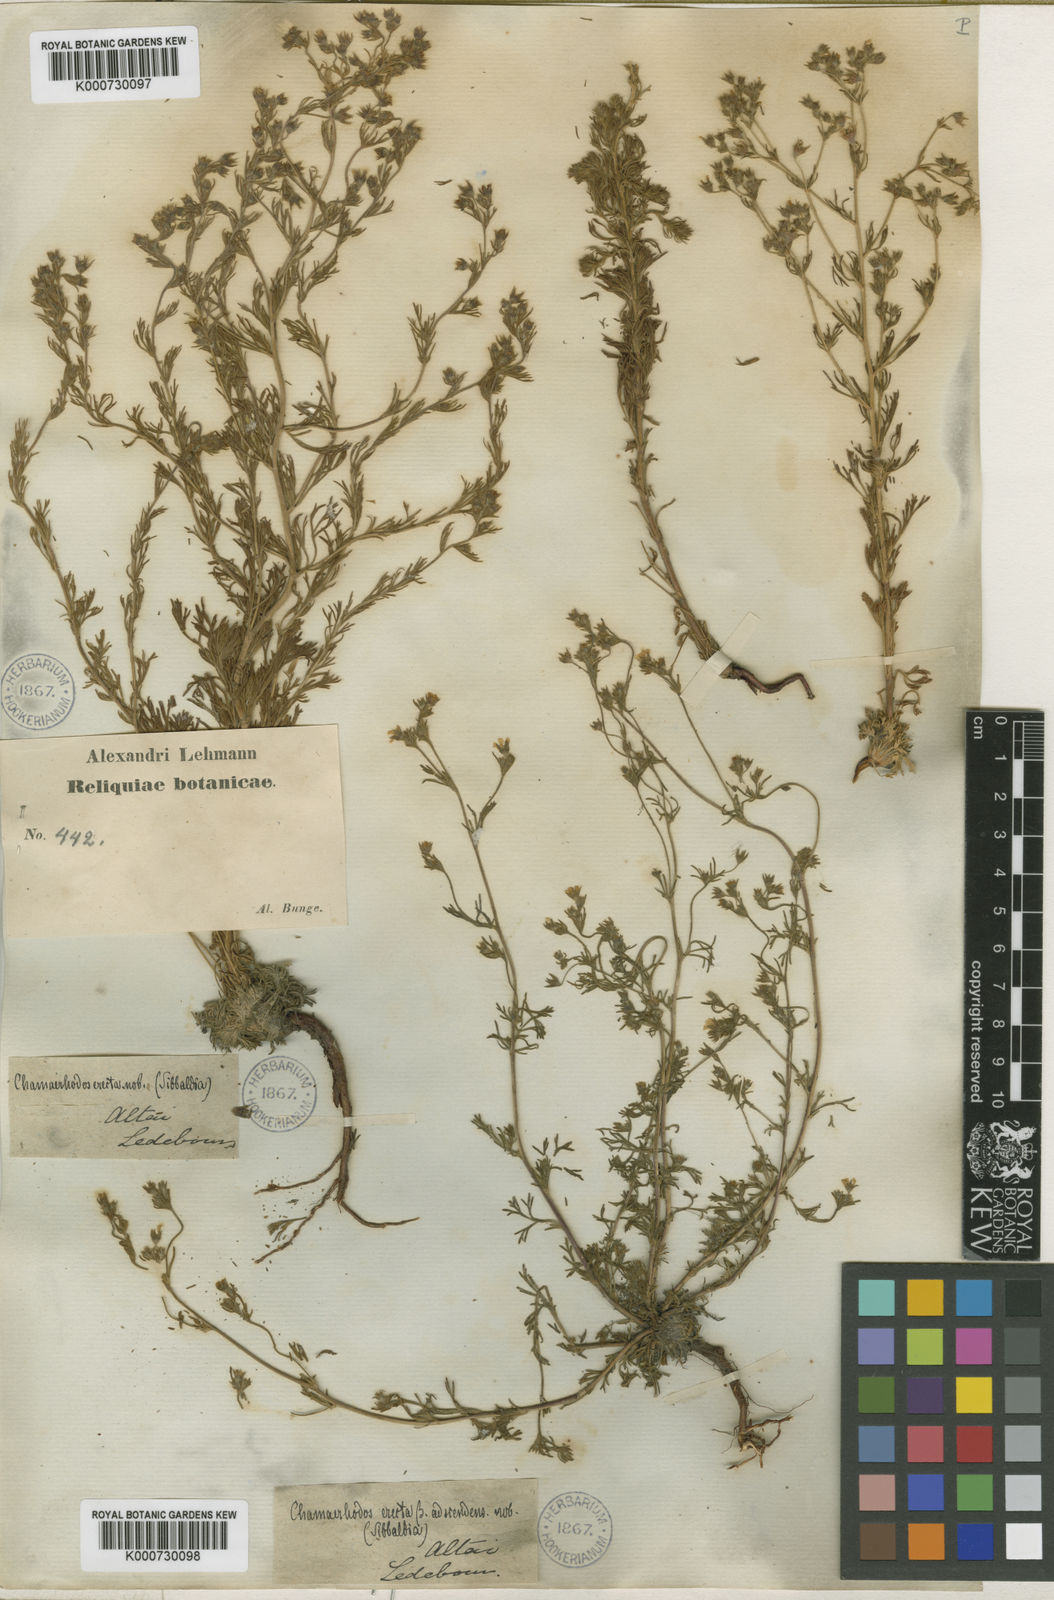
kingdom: Plantae
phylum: Tracheophyta
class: Magnoliopsida
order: Rosales
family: Rosaceae
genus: Chamaerhodos
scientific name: Chamaerhodos erecta
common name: American chamaerhodos
